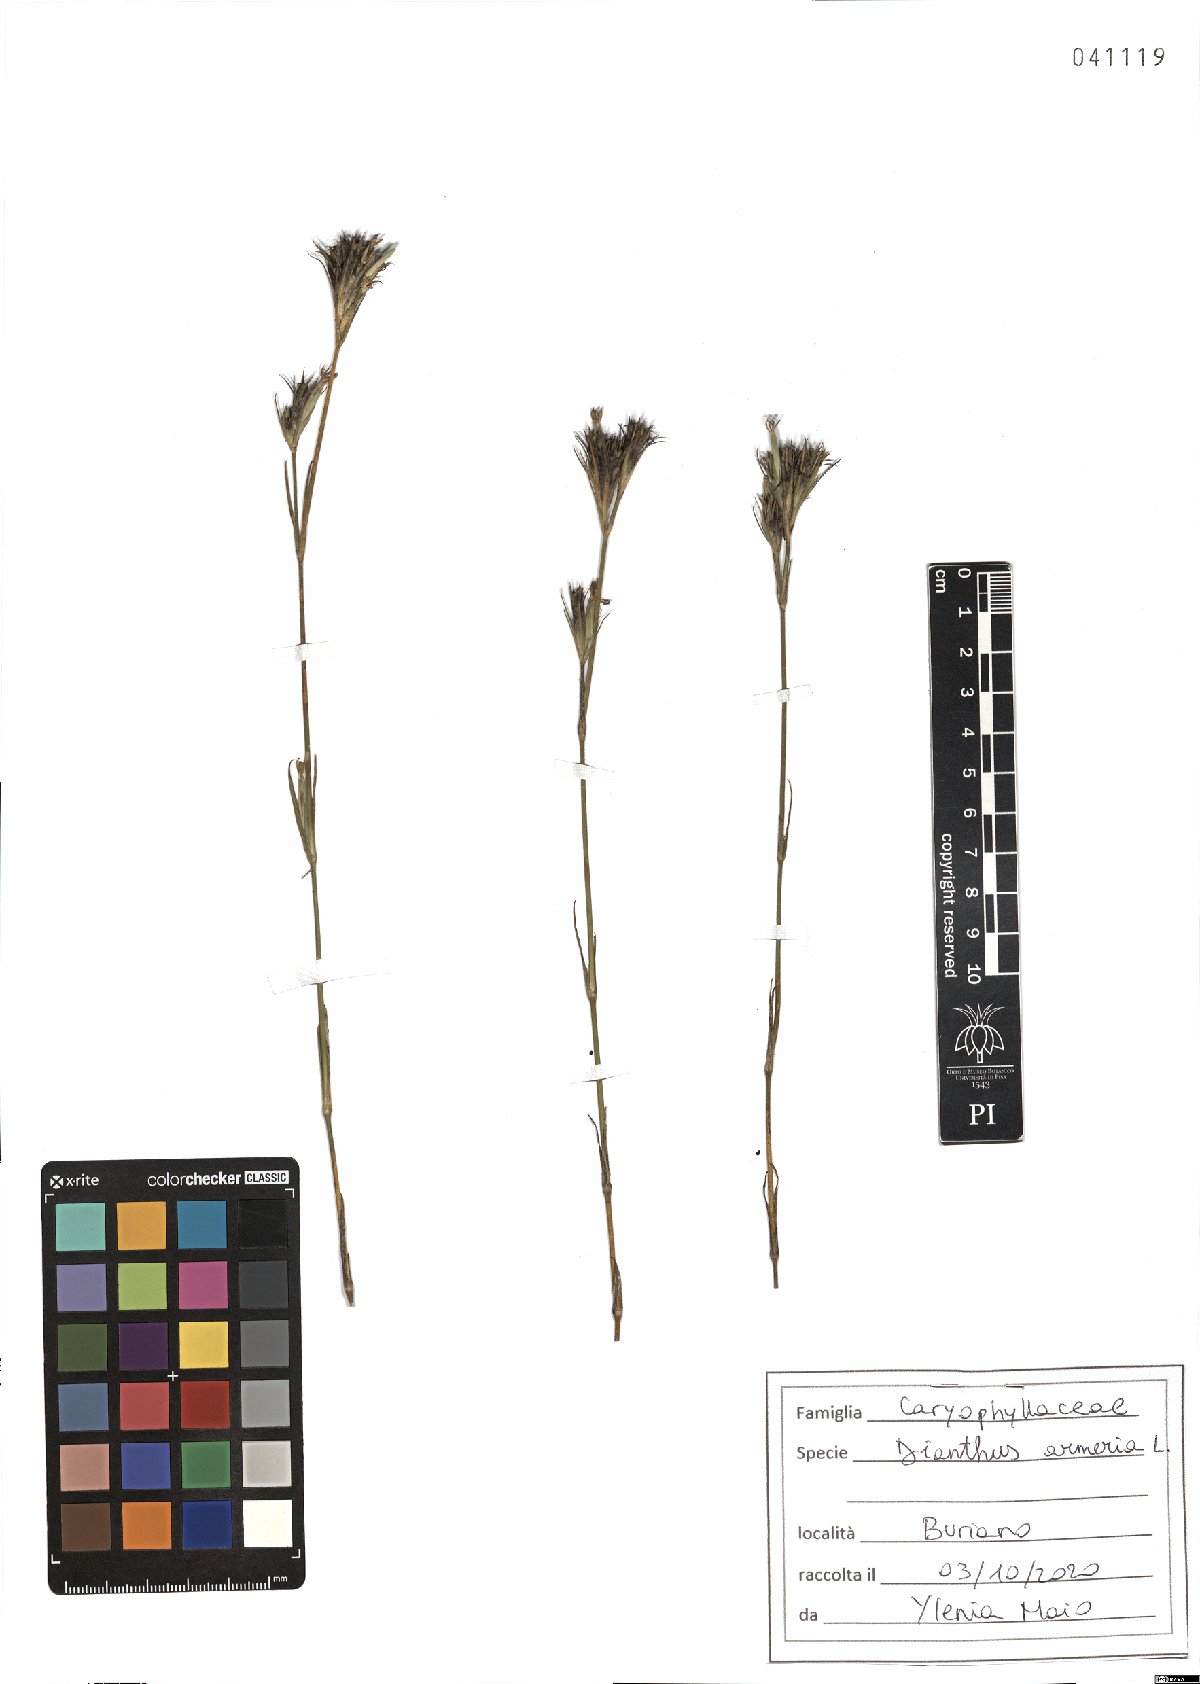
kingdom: Plantae
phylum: Tracheophyta
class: Magnoliopsida
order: Caryophyllales
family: Caryophyllaceae
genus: Dianthus
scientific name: Dianthus armeria
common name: Deptford pink
